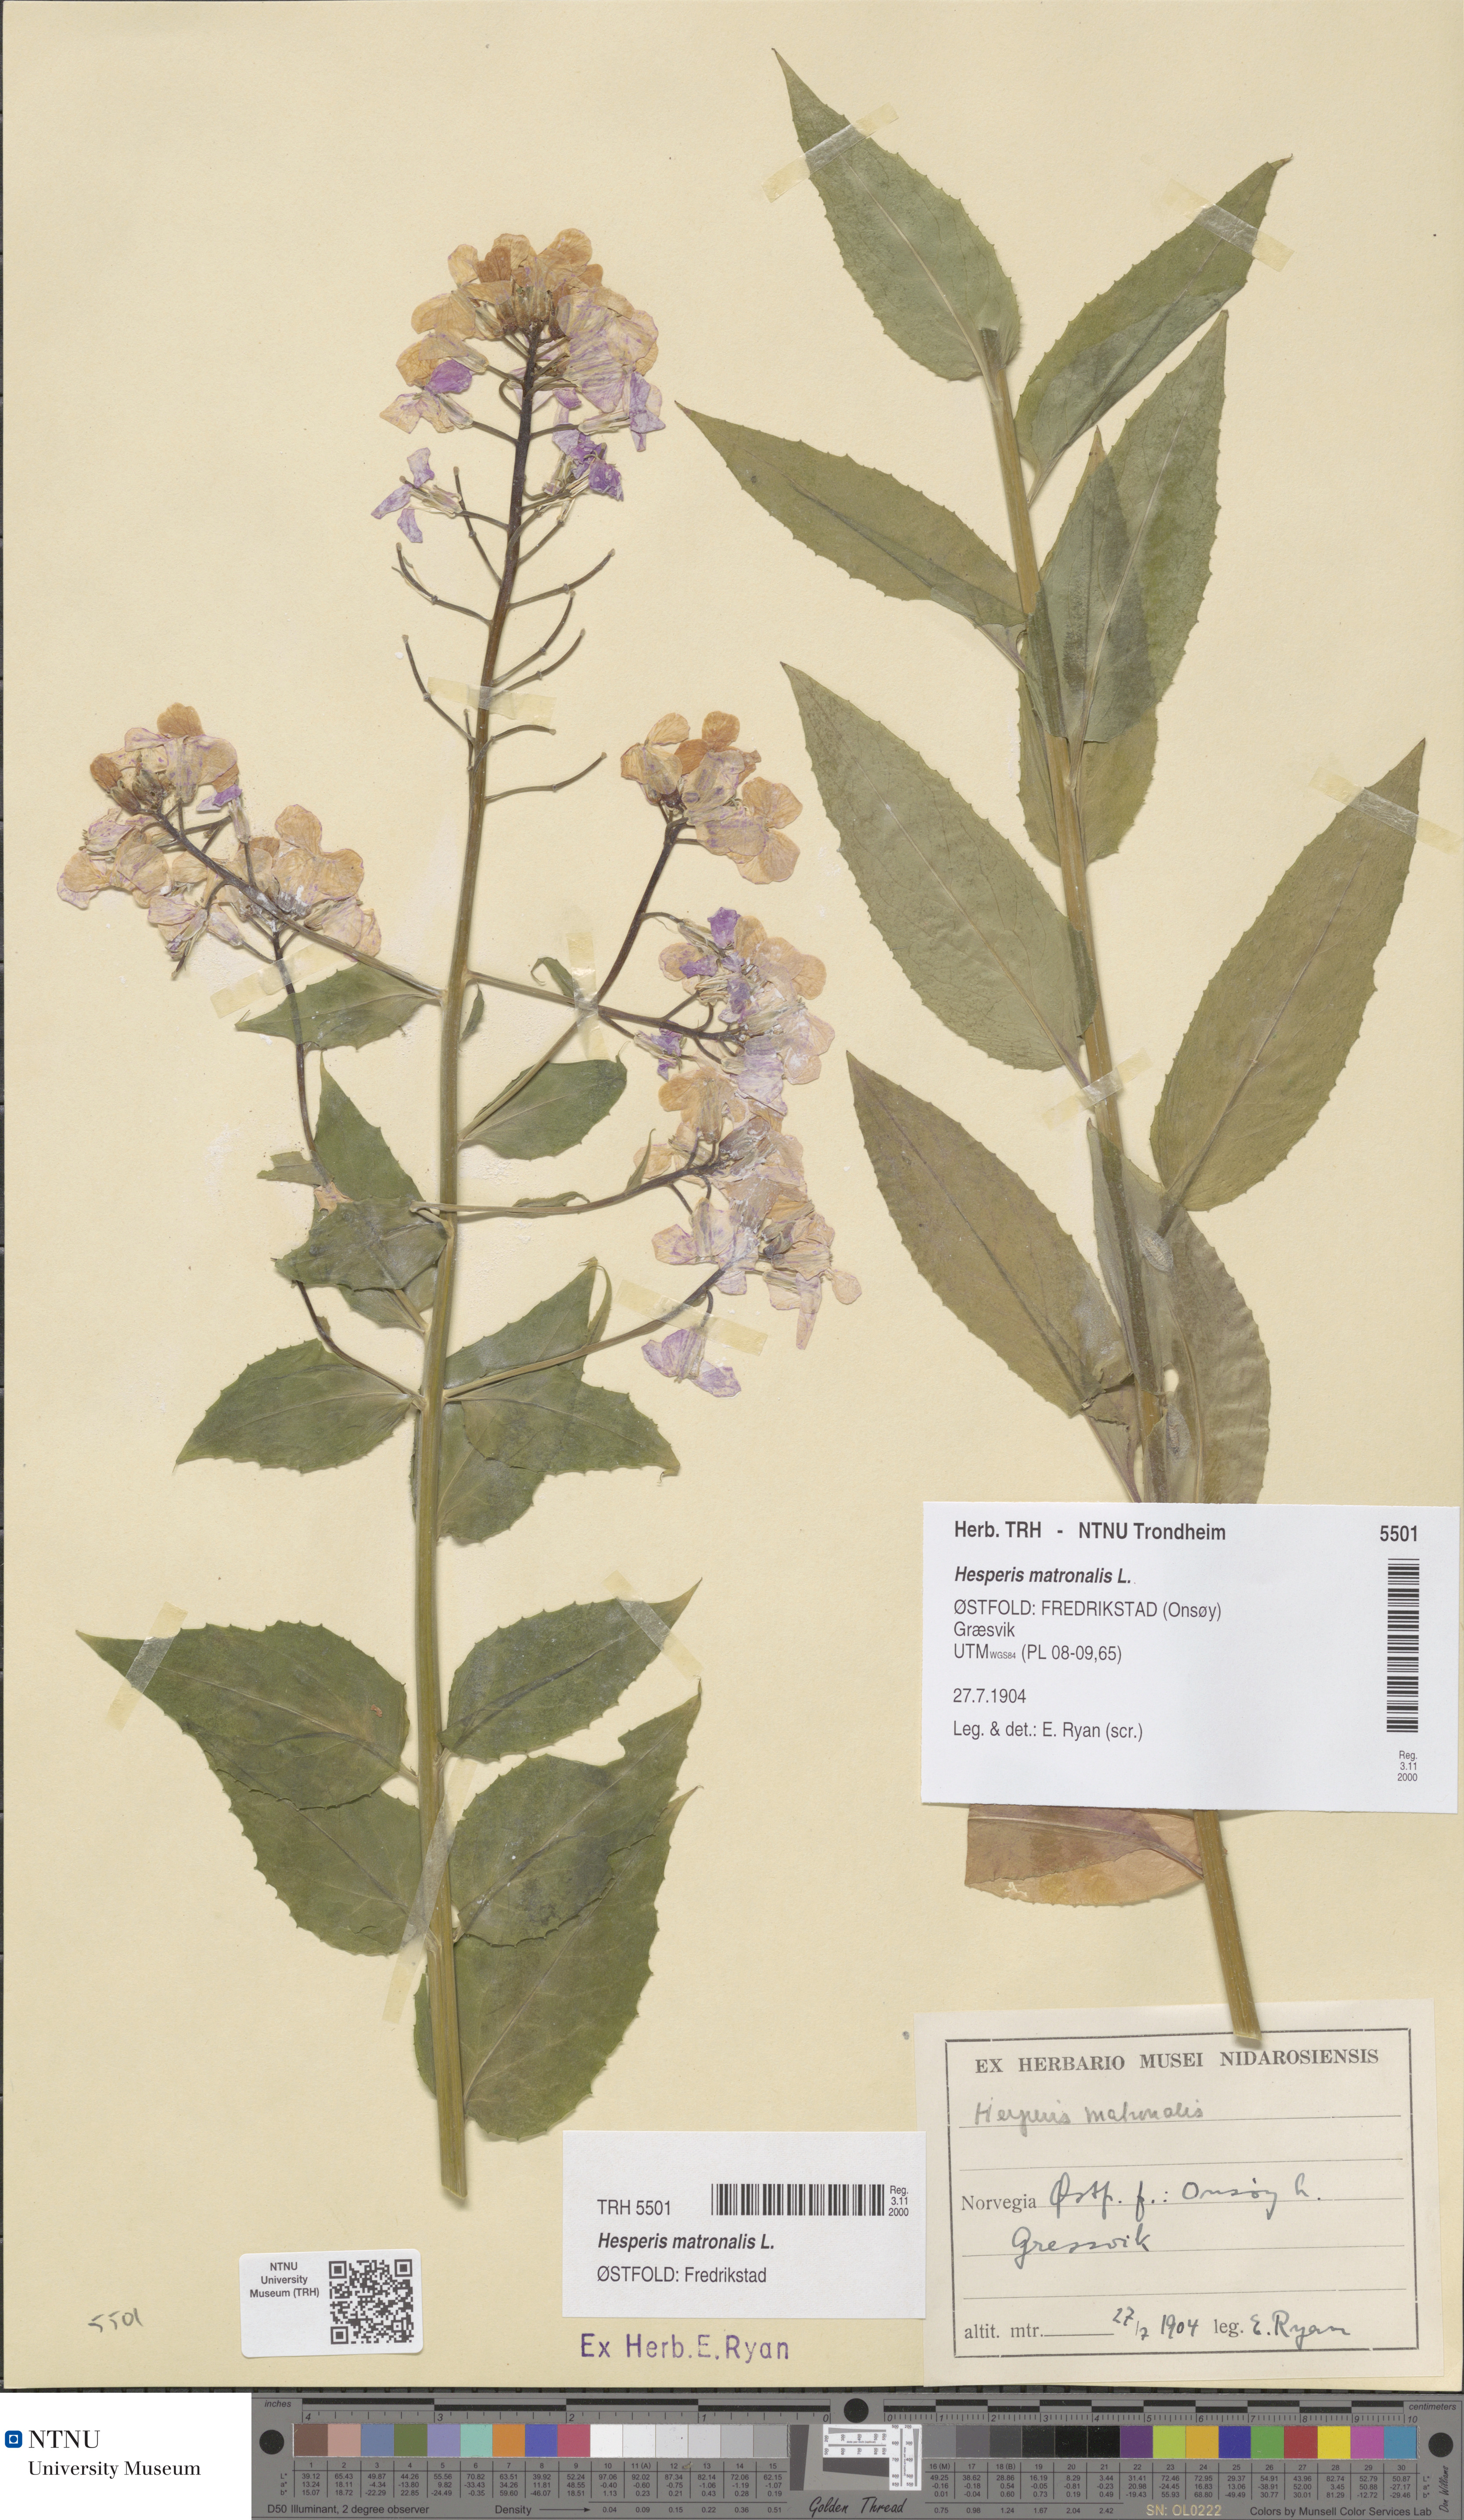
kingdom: Plantae
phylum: Tracheophyta
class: Magnoliopsida
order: Brassicales
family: Brassicaceae
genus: Hesperis
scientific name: Hesperis matronalis
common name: Dame's-violet
